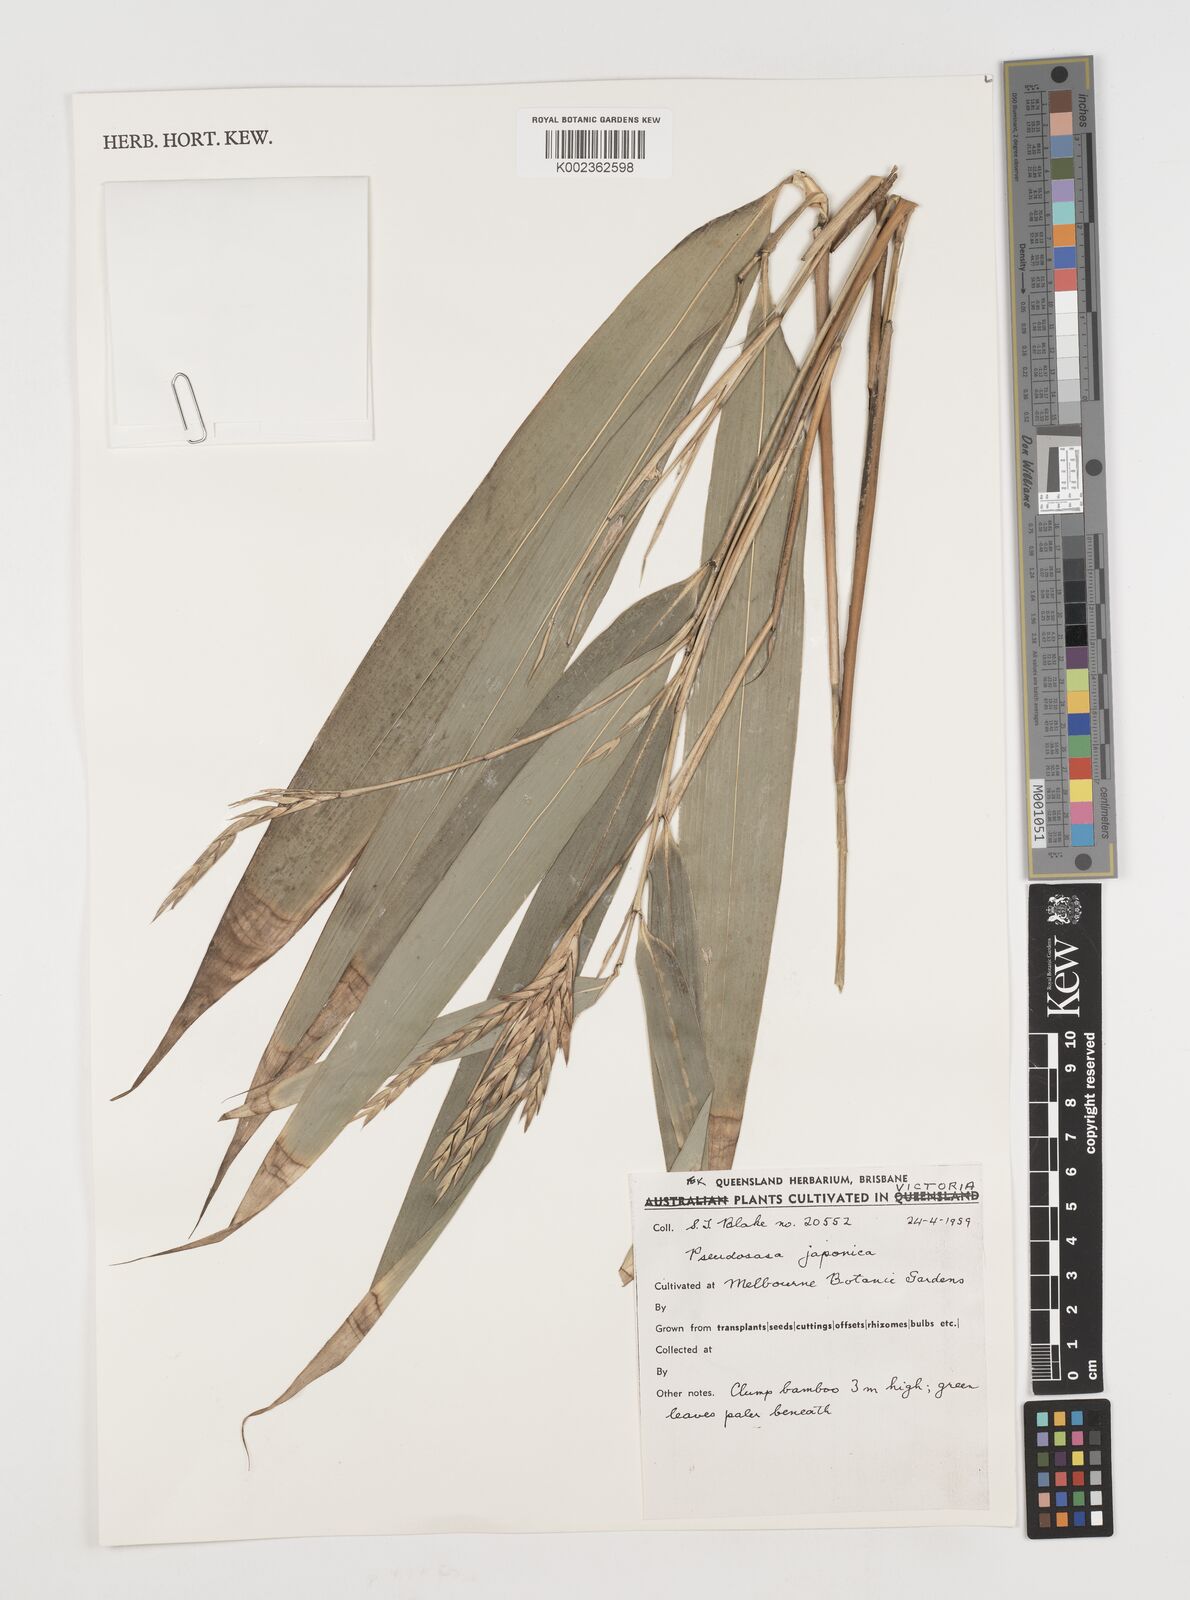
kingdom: Plantae
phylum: Tracheophyta
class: Liliopsida
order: Poales
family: Poaceae
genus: Pseudosasa
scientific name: Pseudosasa japonica
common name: Arrow bamboo
